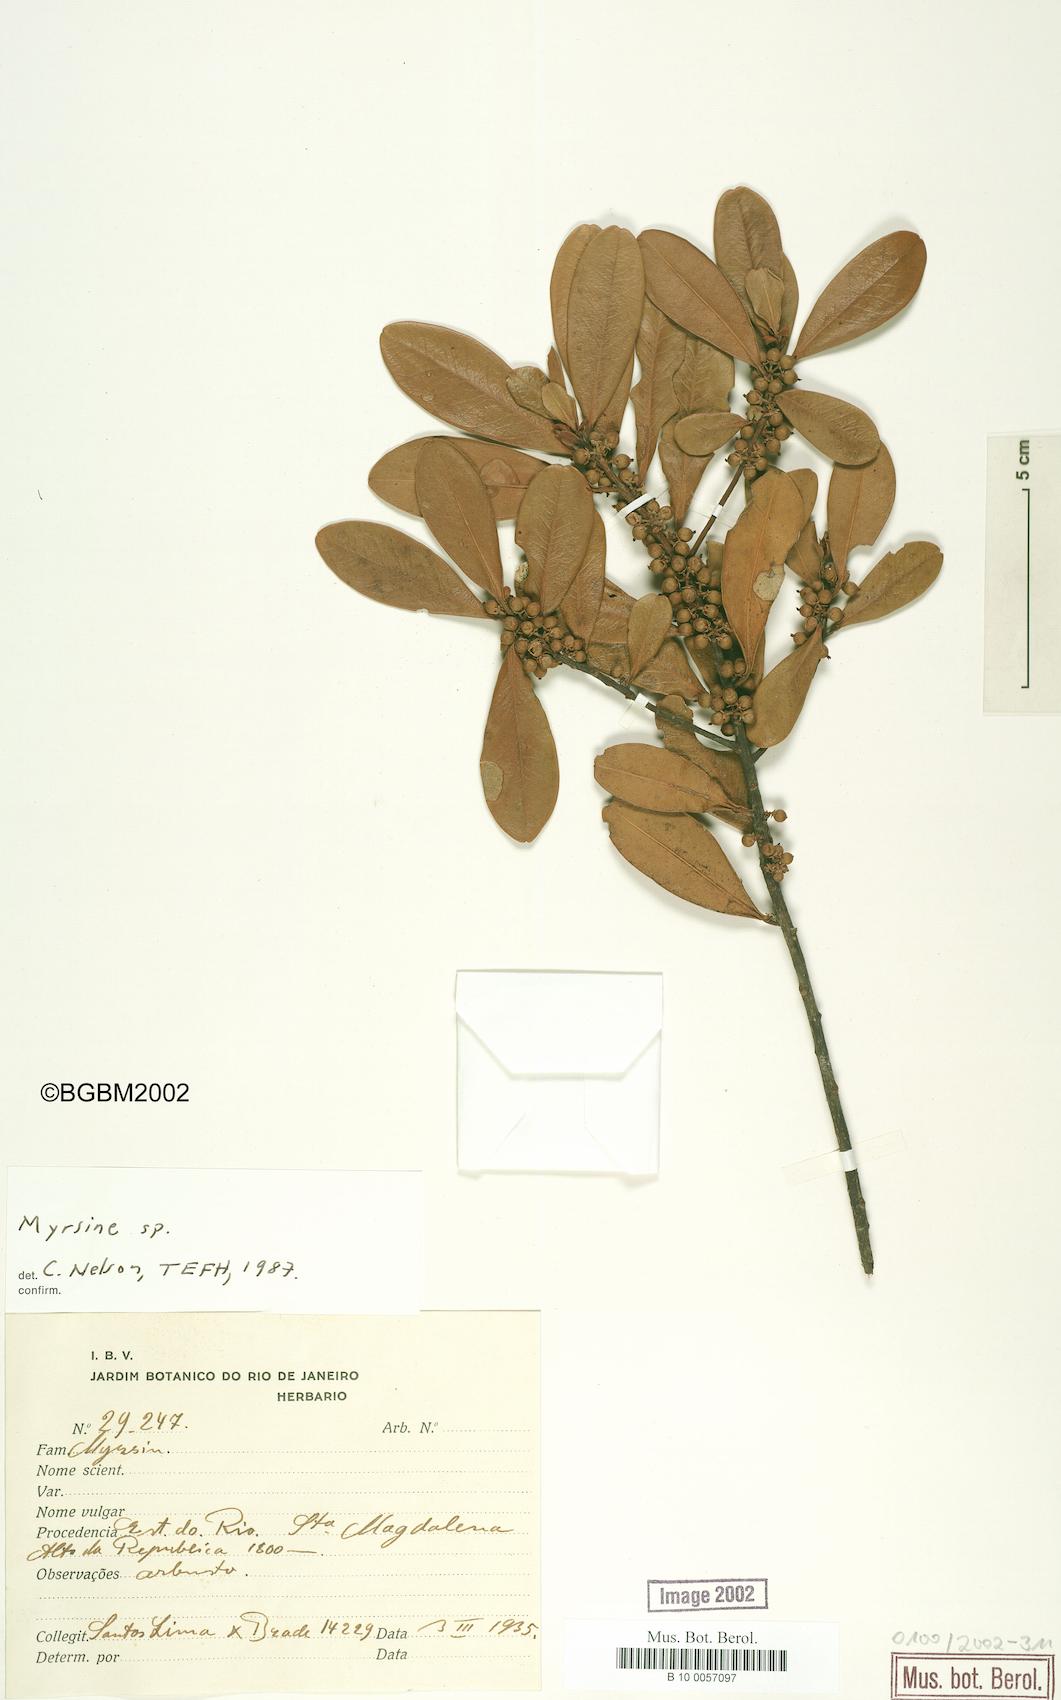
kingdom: Plantae
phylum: Tracheophyta
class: Magnoliopsida
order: Ericales
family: Primulaceae
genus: Myrsine
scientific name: Myrsine
